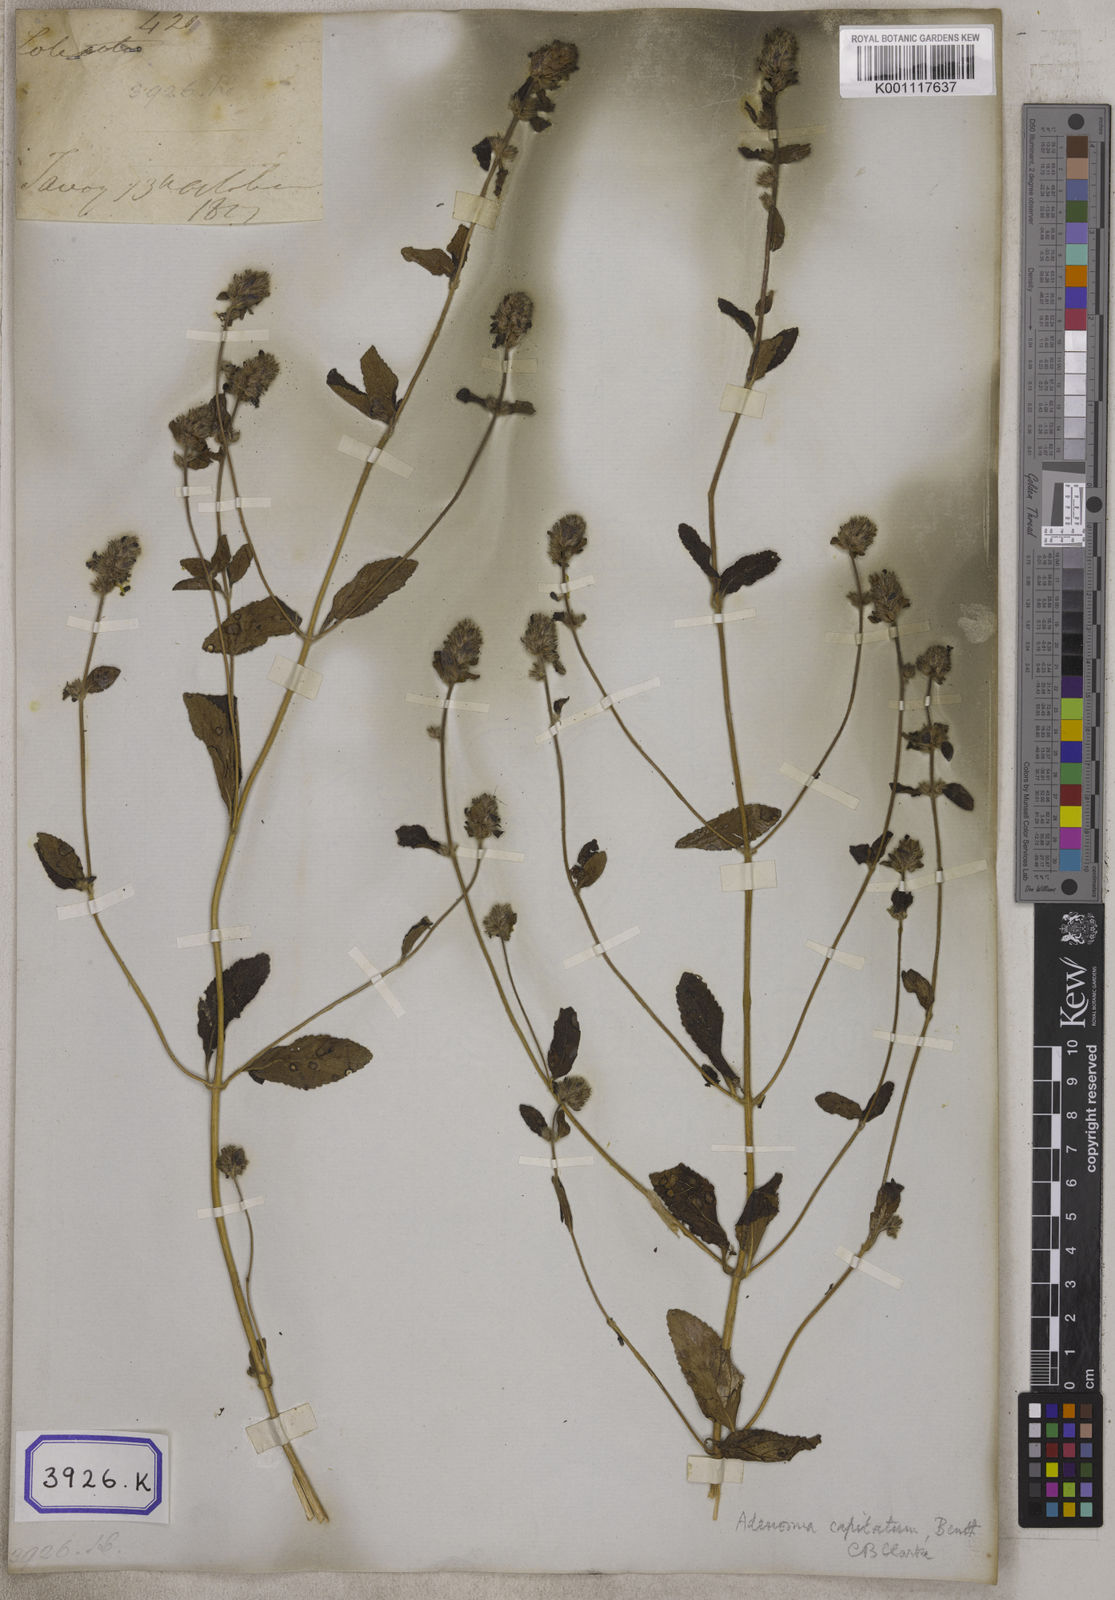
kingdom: Plantae
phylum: Tracheophyta
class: Magnoliopsida
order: Lamiales
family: Plantaginaceae
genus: Stemodia
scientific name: Stemodia
